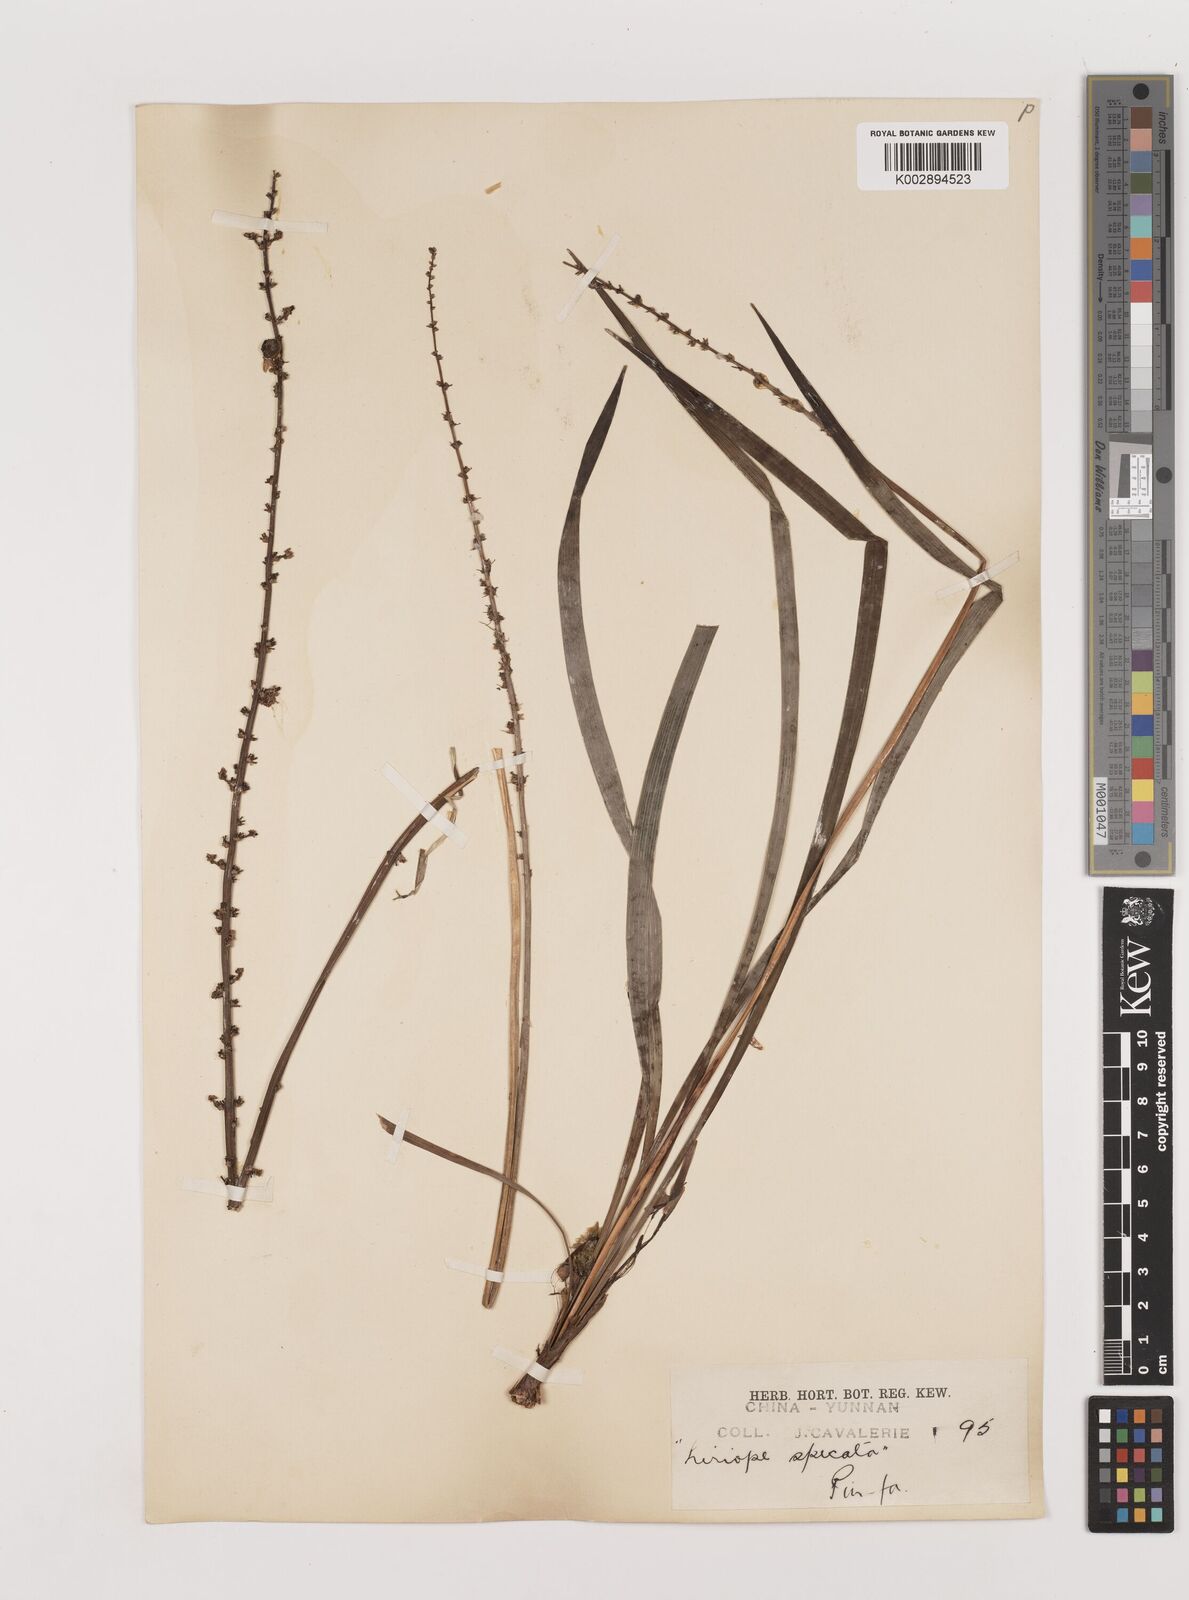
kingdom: Plantae
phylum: Tracheophyta
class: Liliopsida
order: Asparagales
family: Asparagaceae
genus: Liriope
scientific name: Liriope spicata
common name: Creeping liriope
